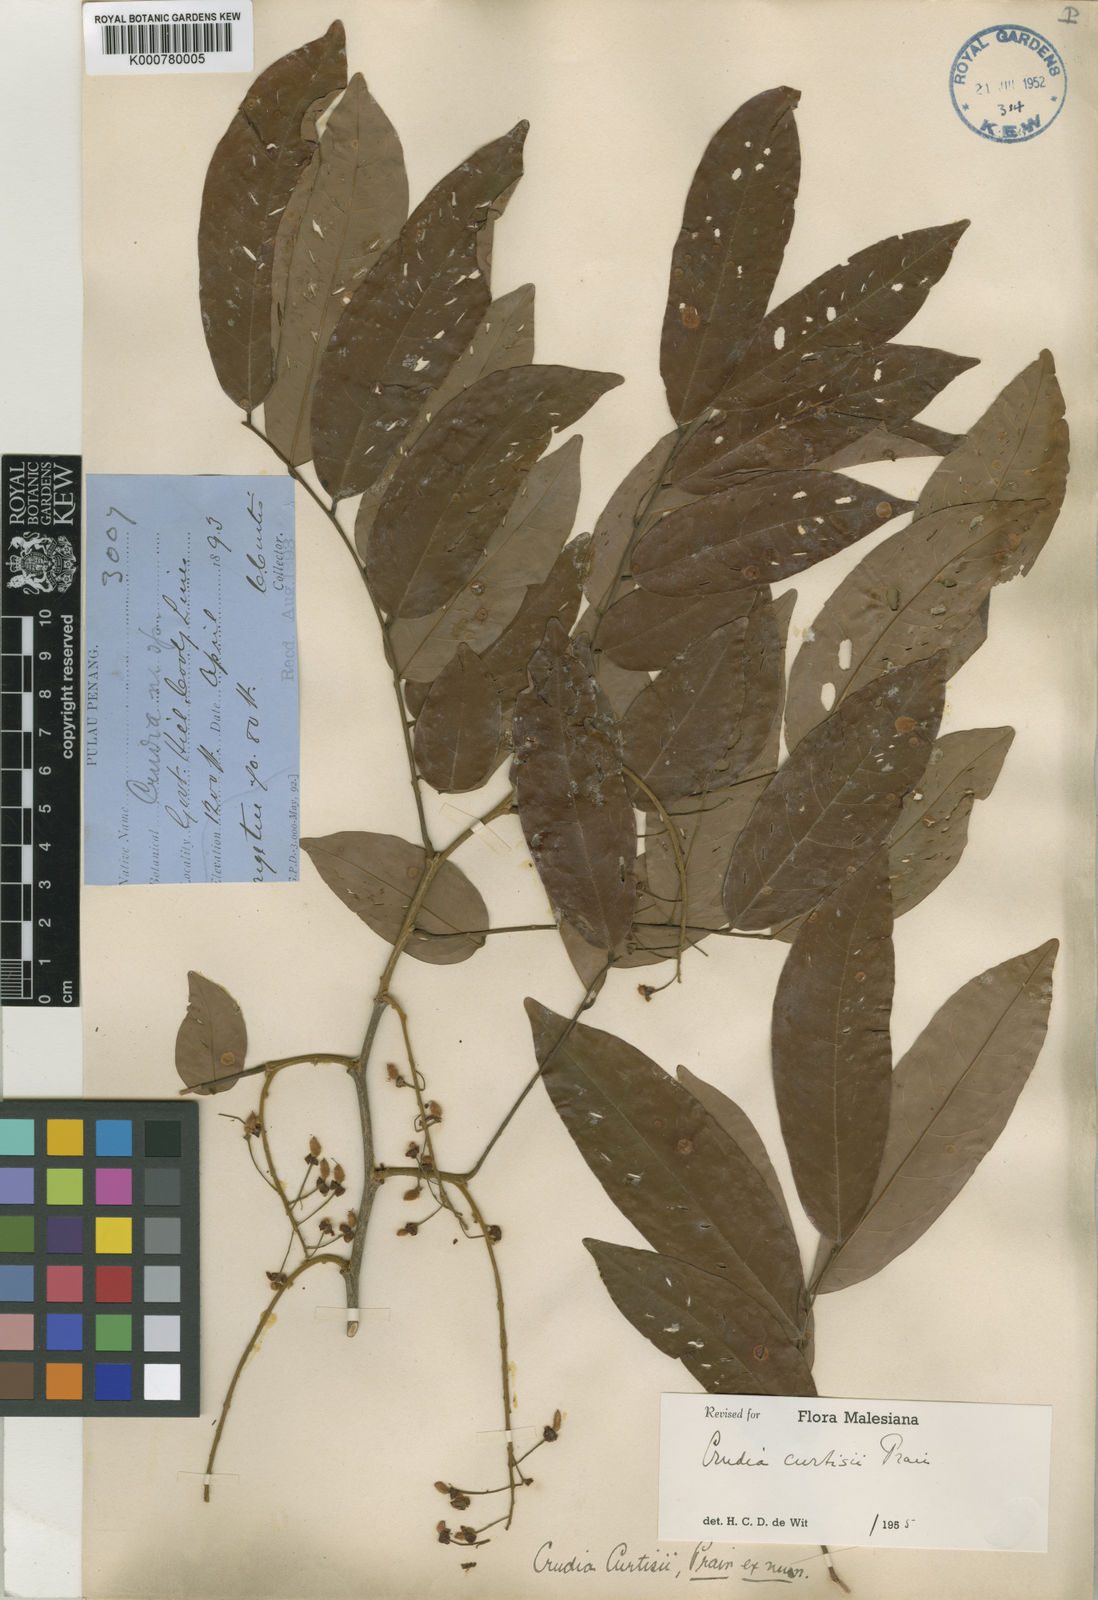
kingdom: Plantae
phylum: Tracheophyta
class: Magnoliopsida
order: Fabales
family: Fabaceae
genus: Crudia
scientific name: Crudia
